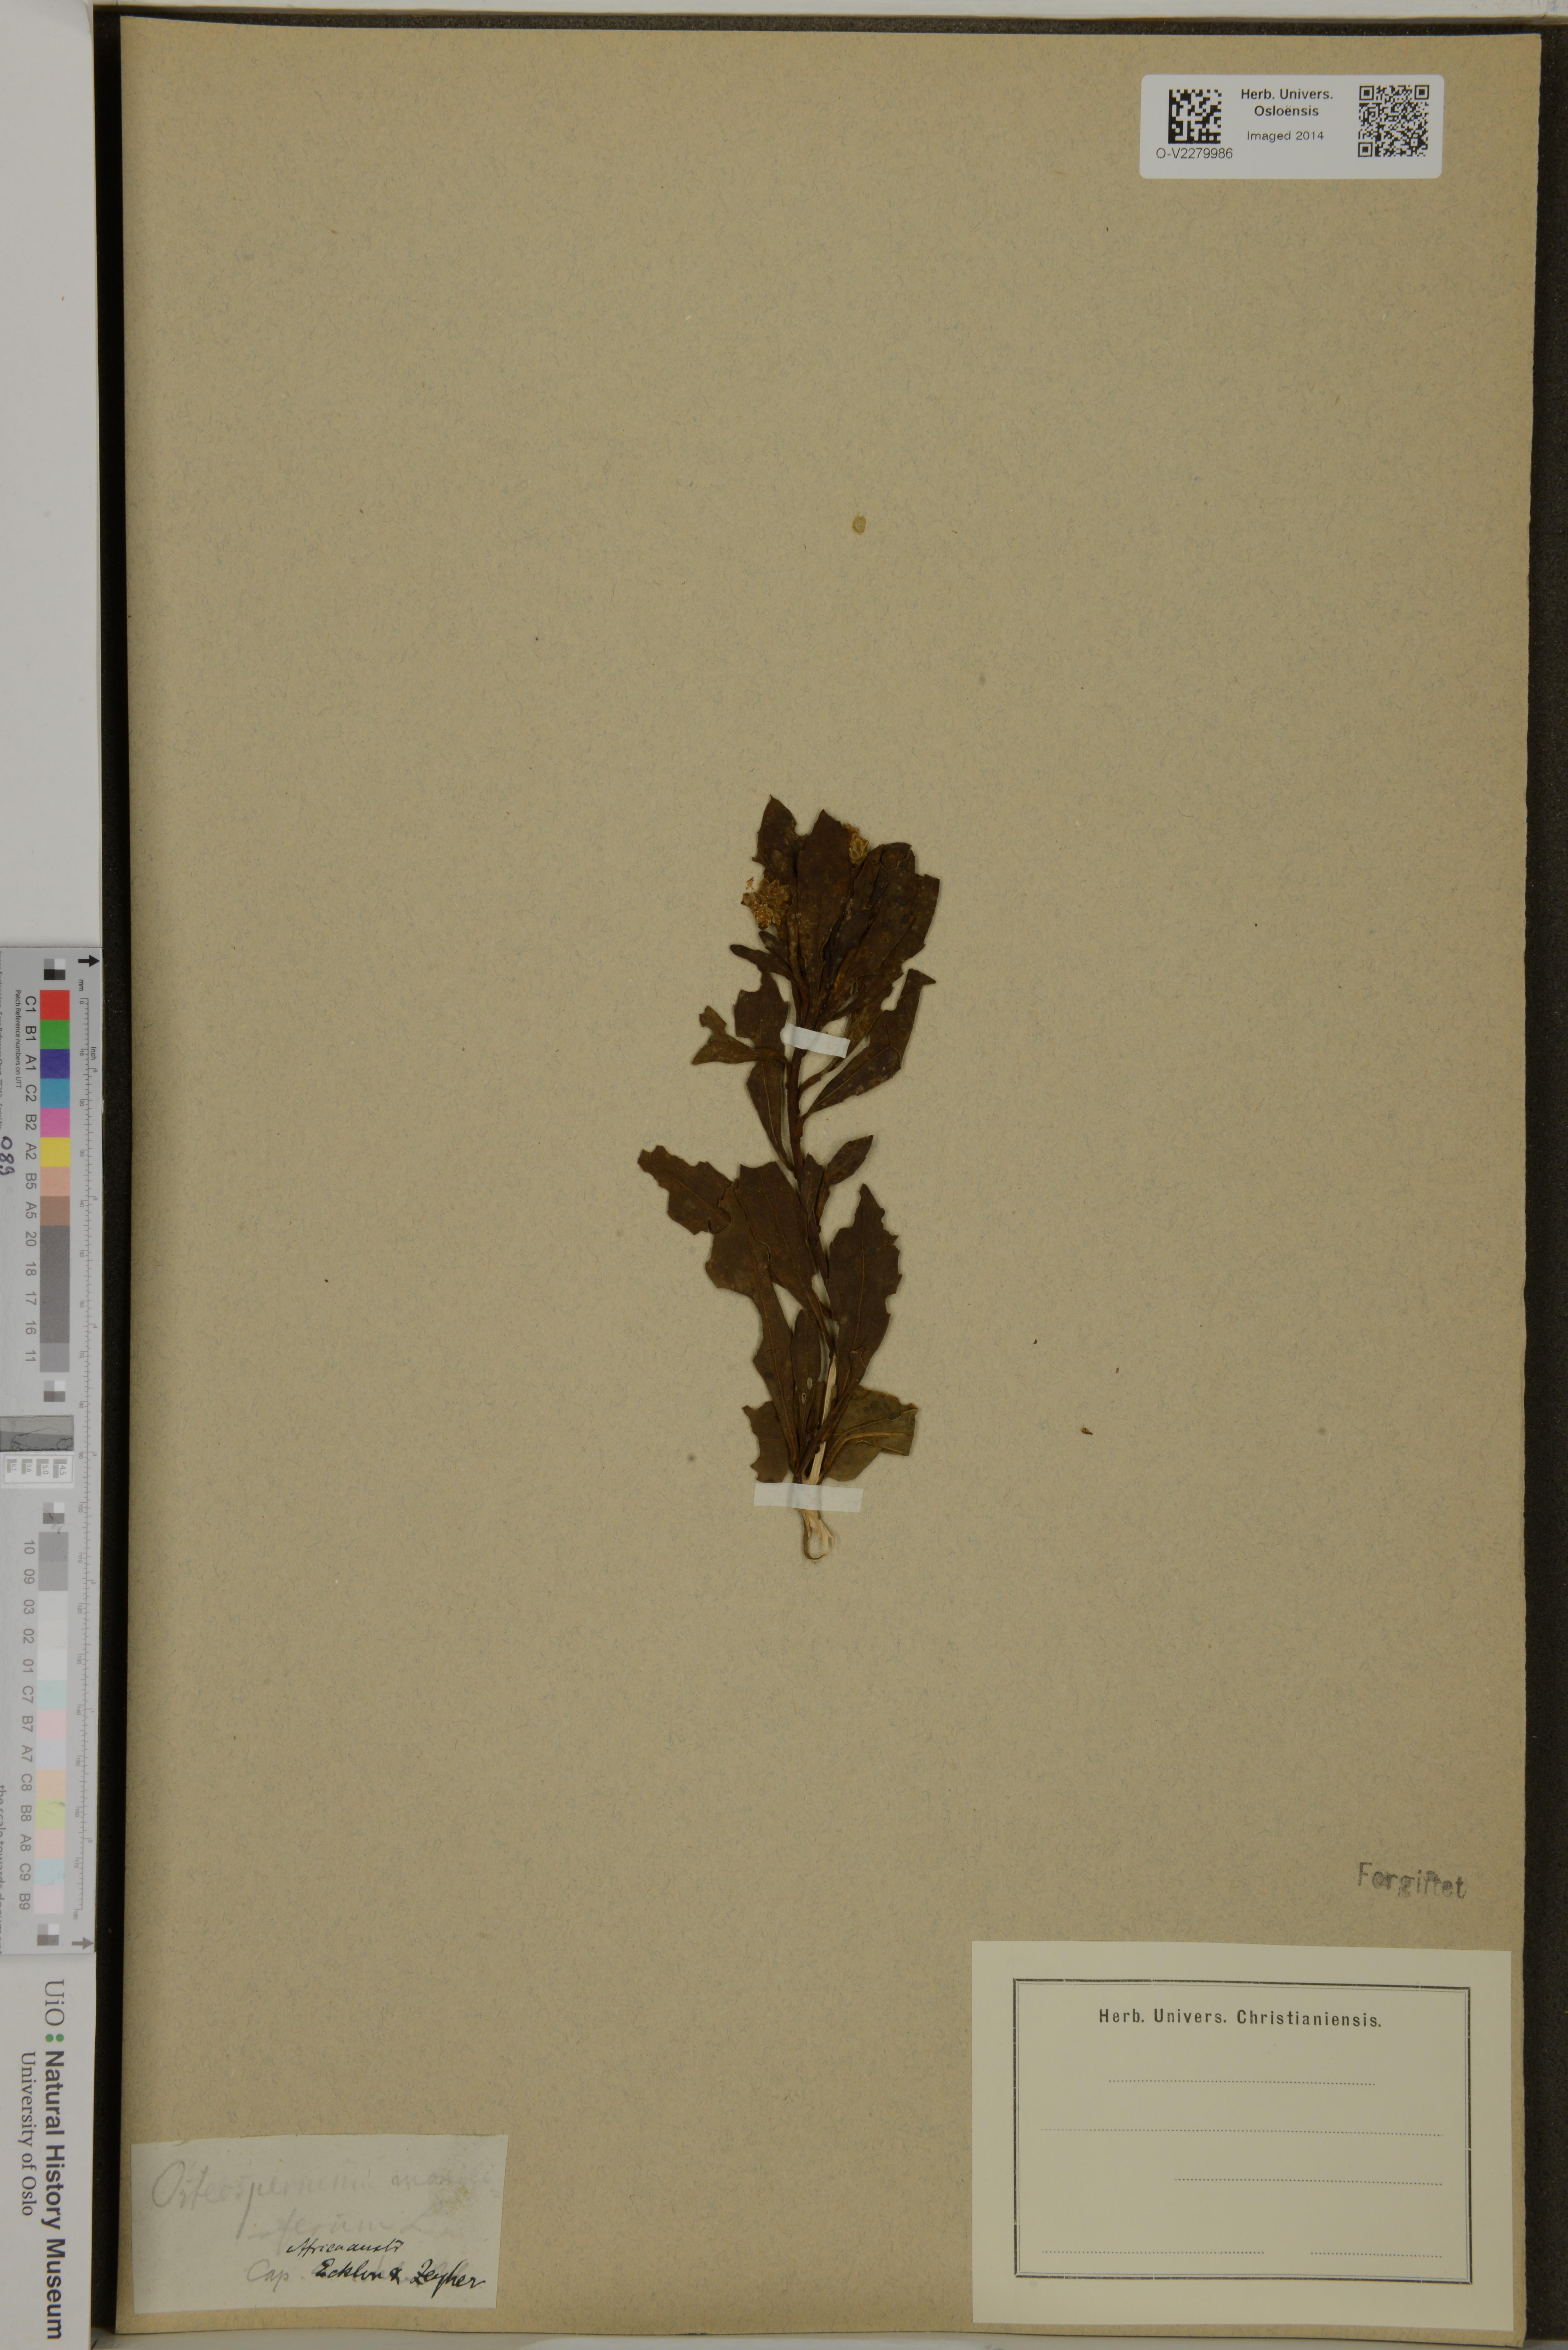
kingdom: Plantae
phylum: Tracheophyta
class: Magnoliopsida
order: Asterales
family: Asteraceae
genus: Osteospermum
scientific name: Osteospermum moniliferum
